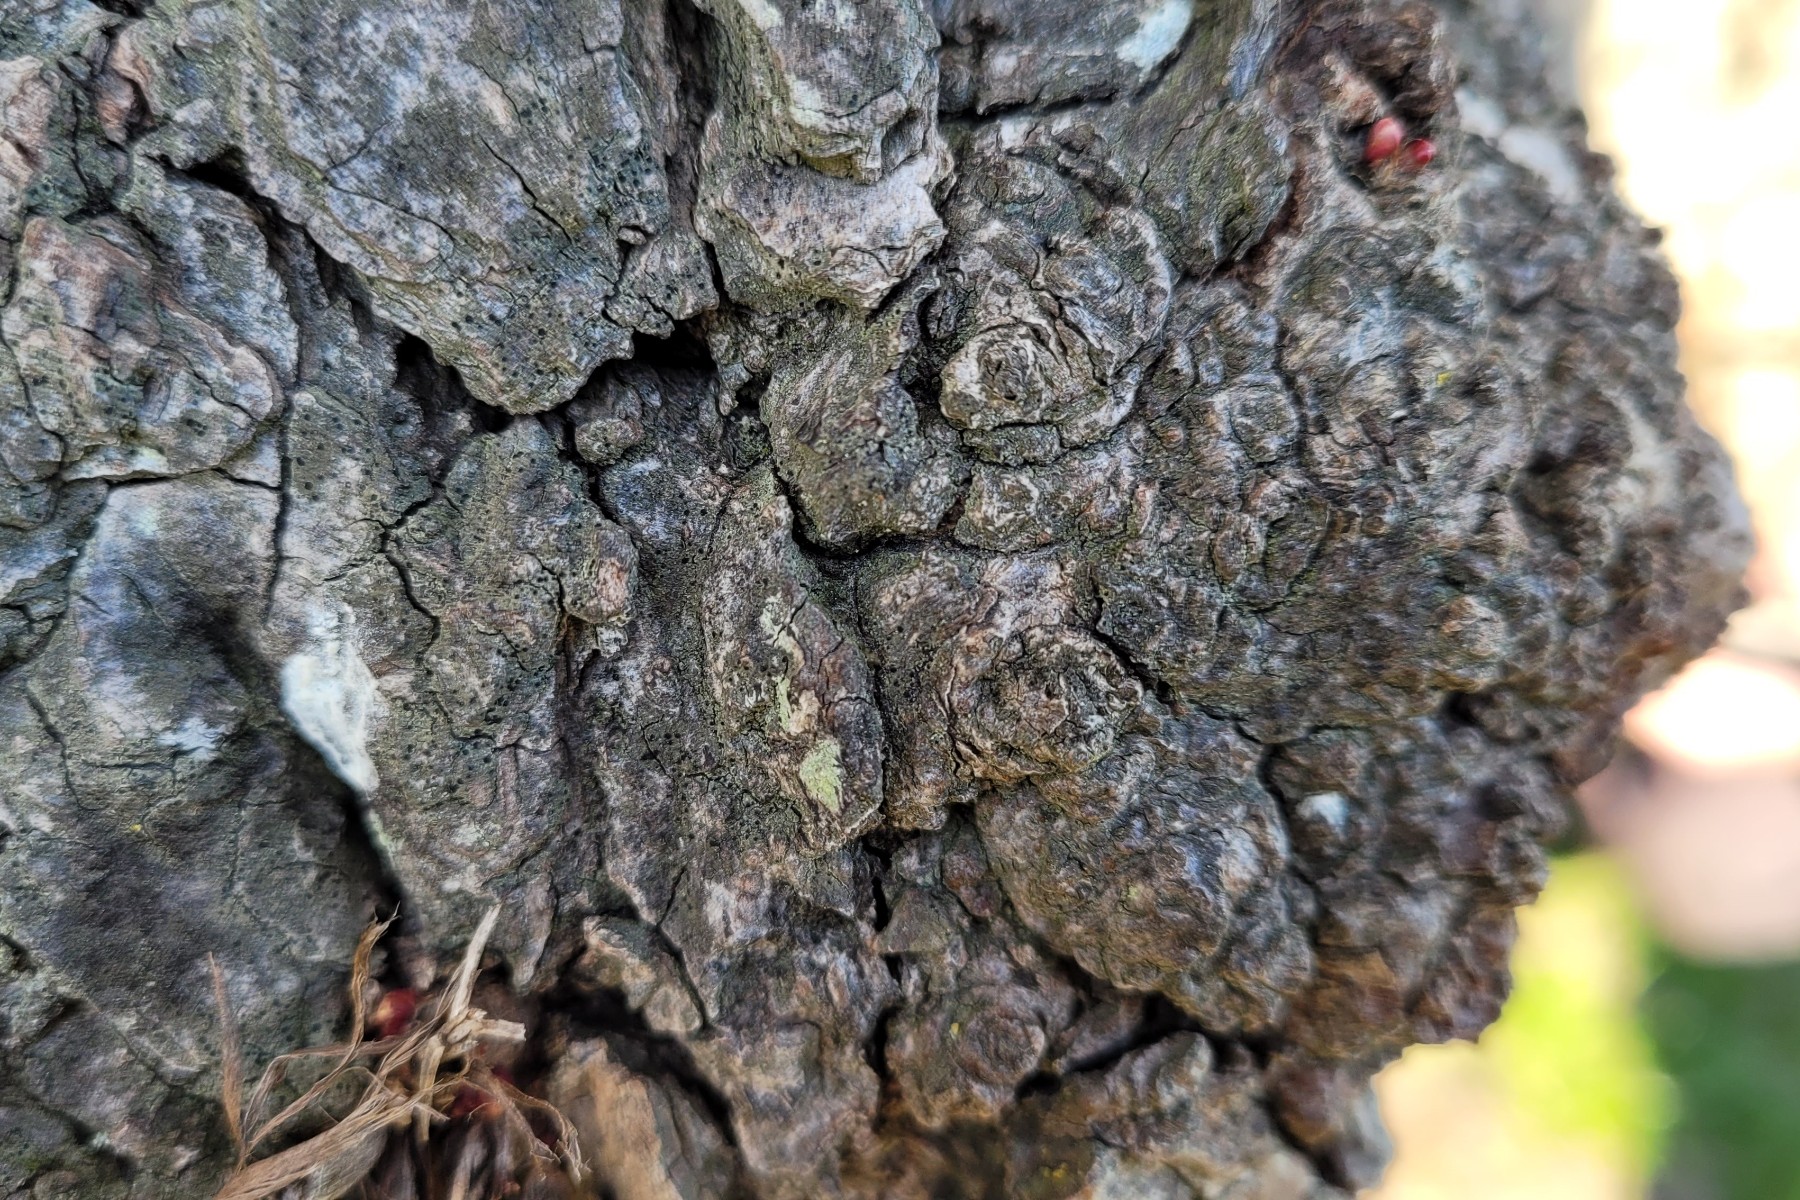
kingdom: Fungi
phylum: Ascomycota
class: Lecanoromycetes
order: Caliciales
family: Caliciaceae
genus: Amandinea
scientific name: Amandinea punctata
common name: liden sortskivelav
